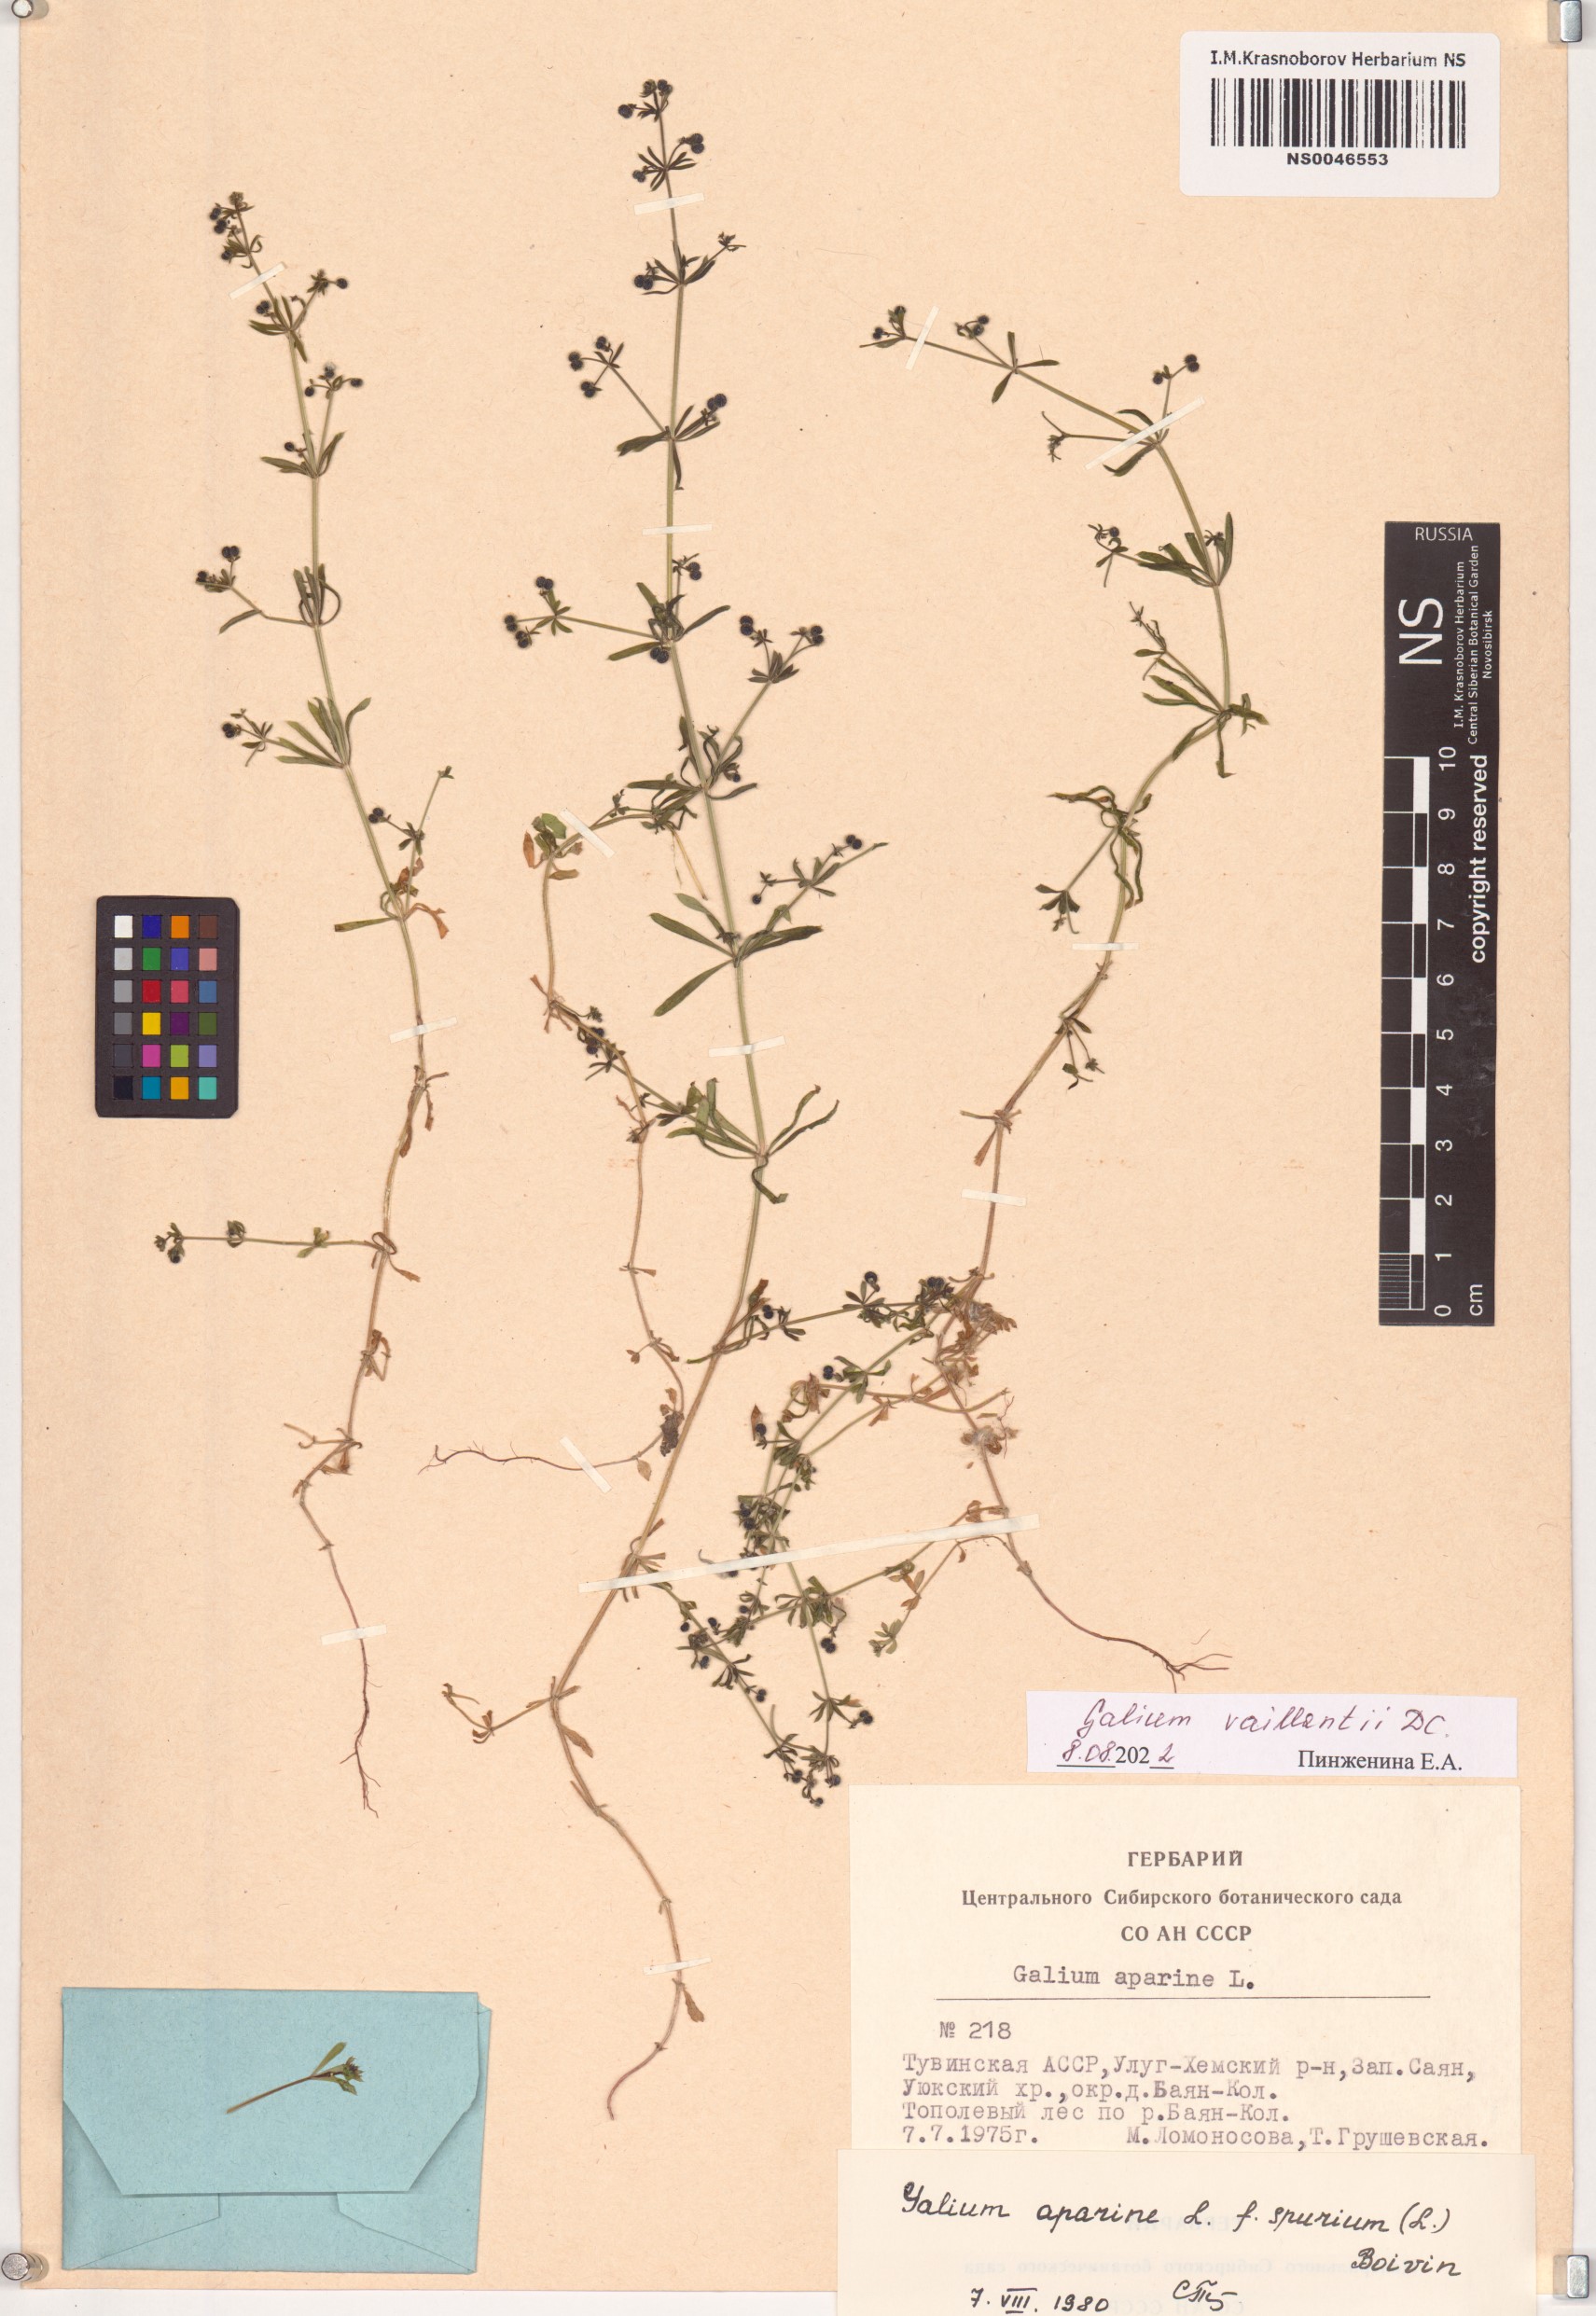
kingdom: Plantae
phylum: Tracheophyta
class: Magnoliopsida
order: Gentianales
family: Rubiaceae
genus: Galium
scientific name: Galium spurium
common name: False cleavers
